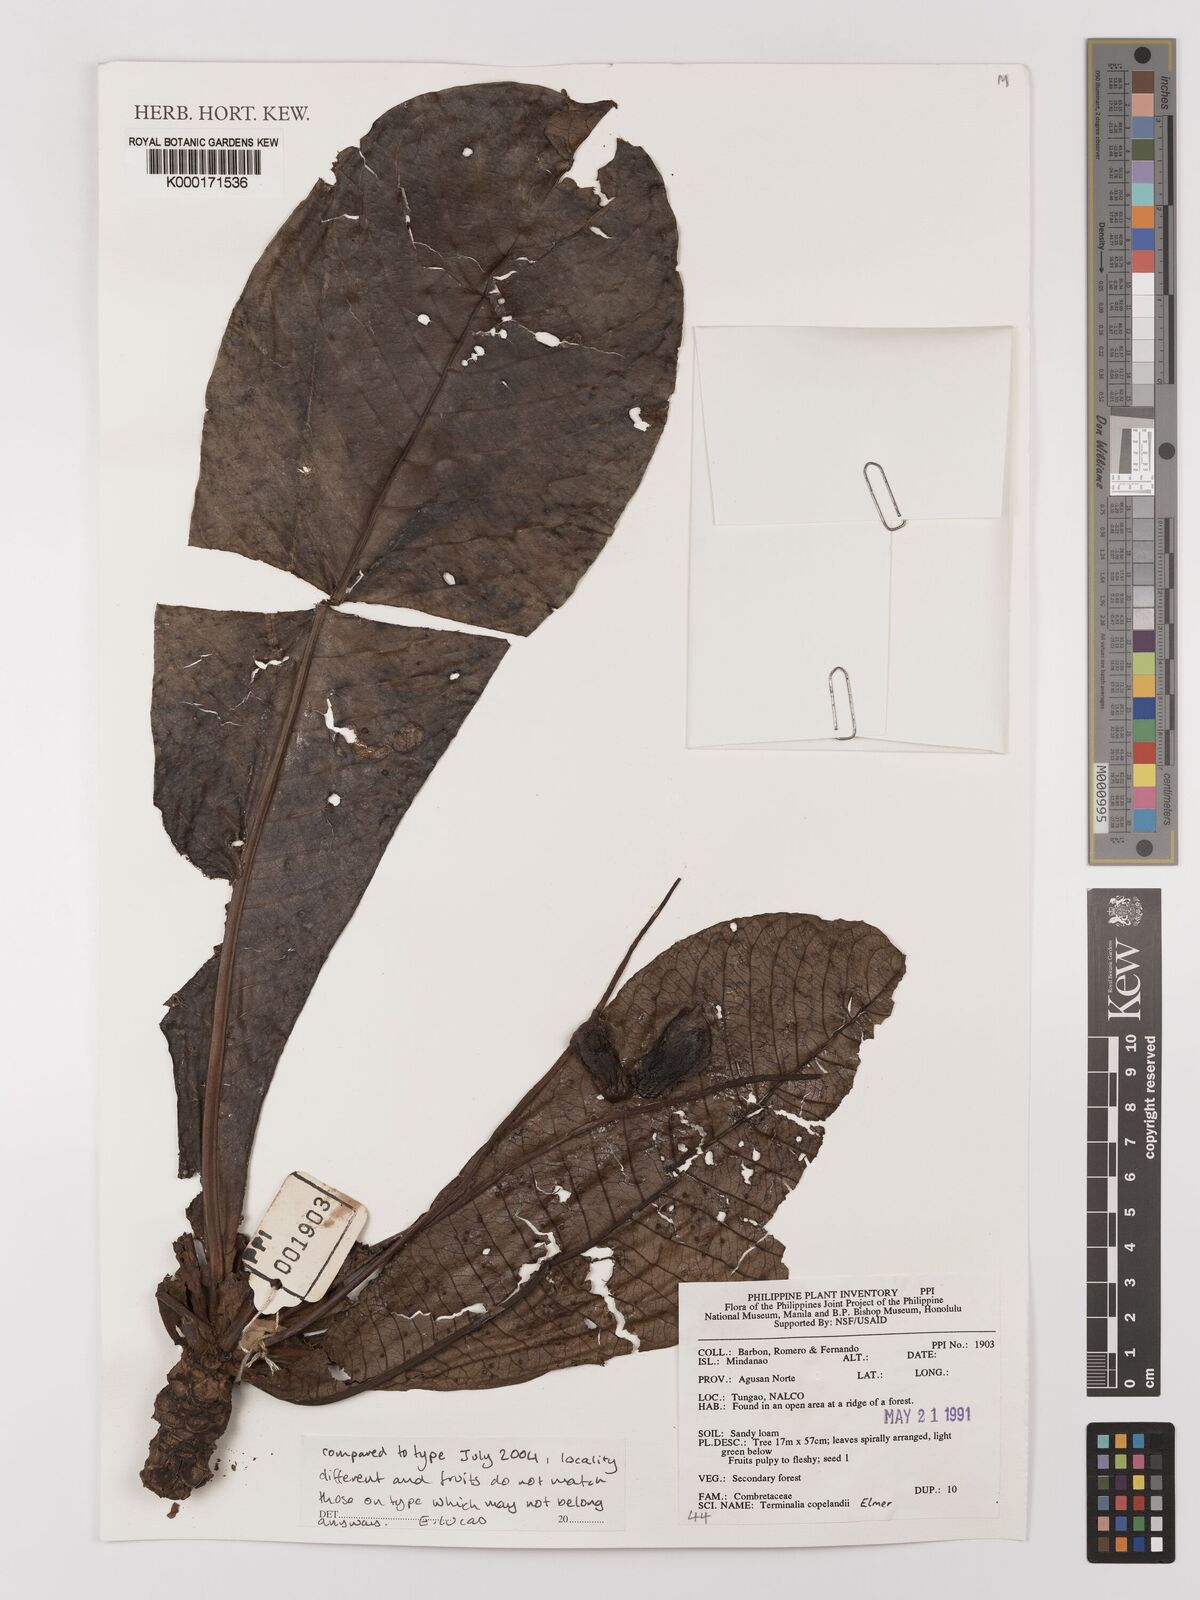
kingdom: Plantae
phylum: Tracheophyta
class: Magnoliopsida
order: Myrtales
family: Combretaceae
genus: Terminalia
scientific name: Terminalia procera
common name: White bombway
